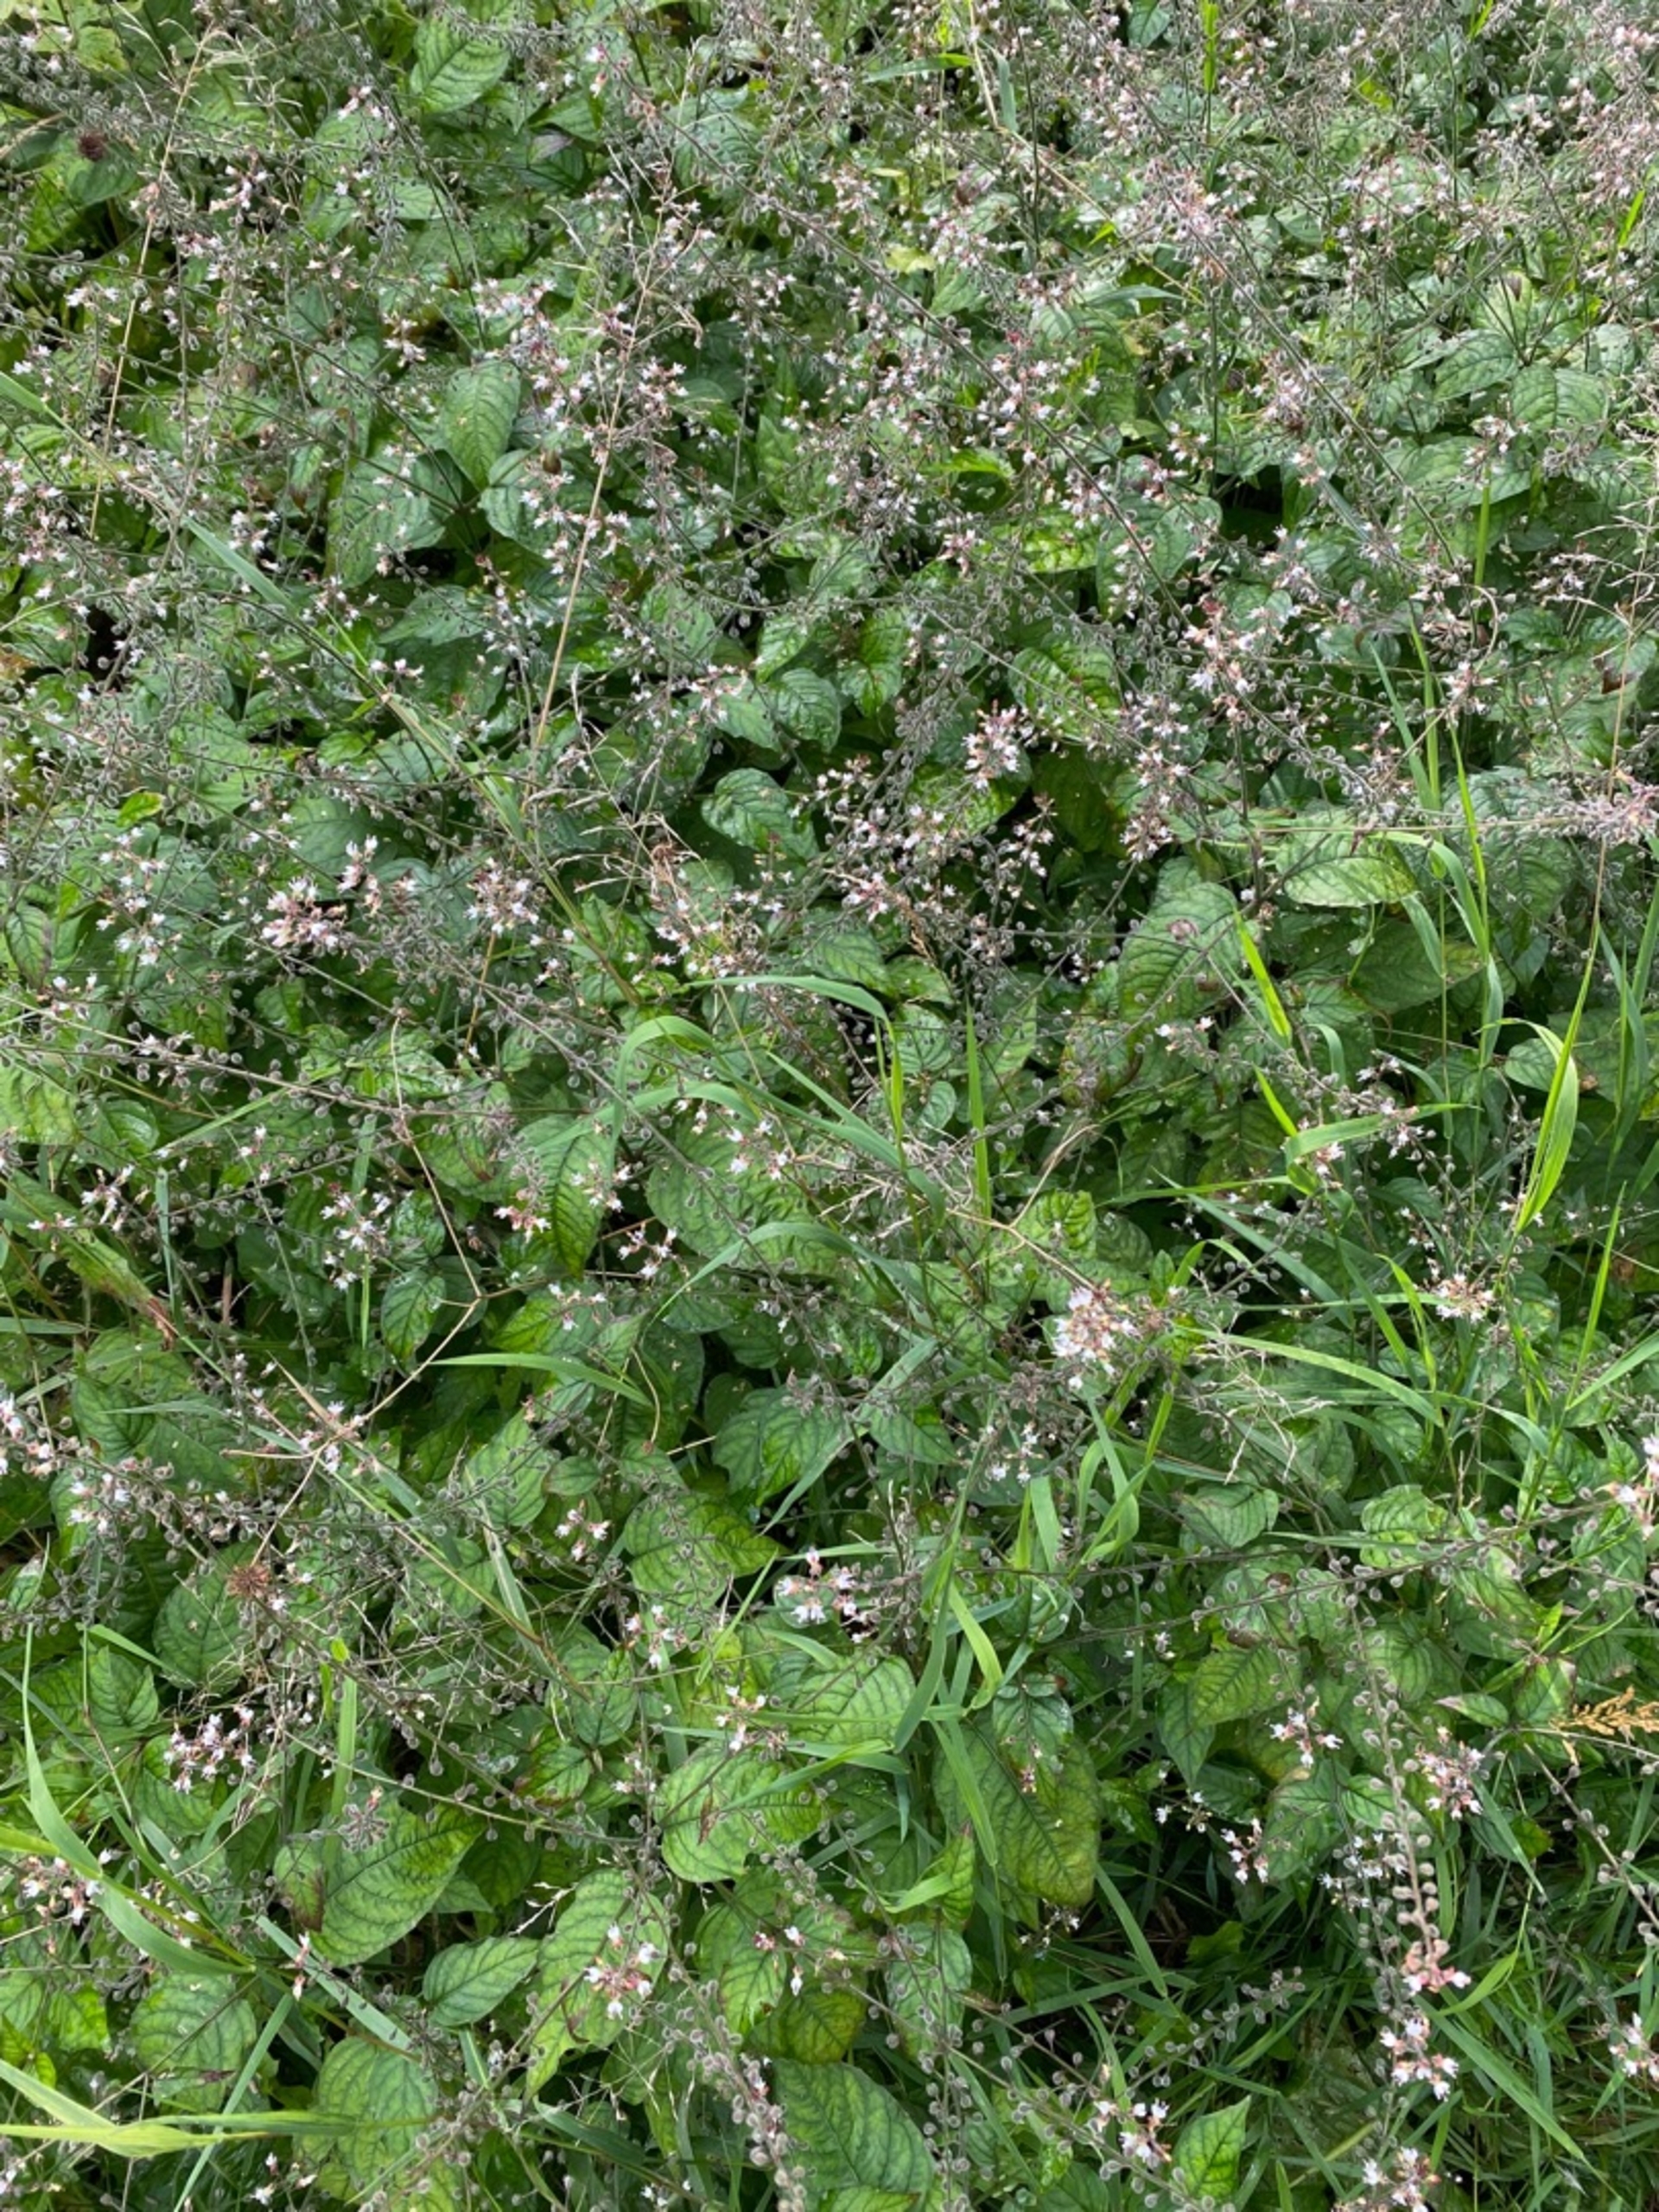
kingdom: Plantae
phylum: Tracheophyta
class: Magnoliopsida
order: Myrtales
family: Onagraceae
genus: Circaea
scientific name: Circaea lutetiana
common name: Dunet steffensurt
